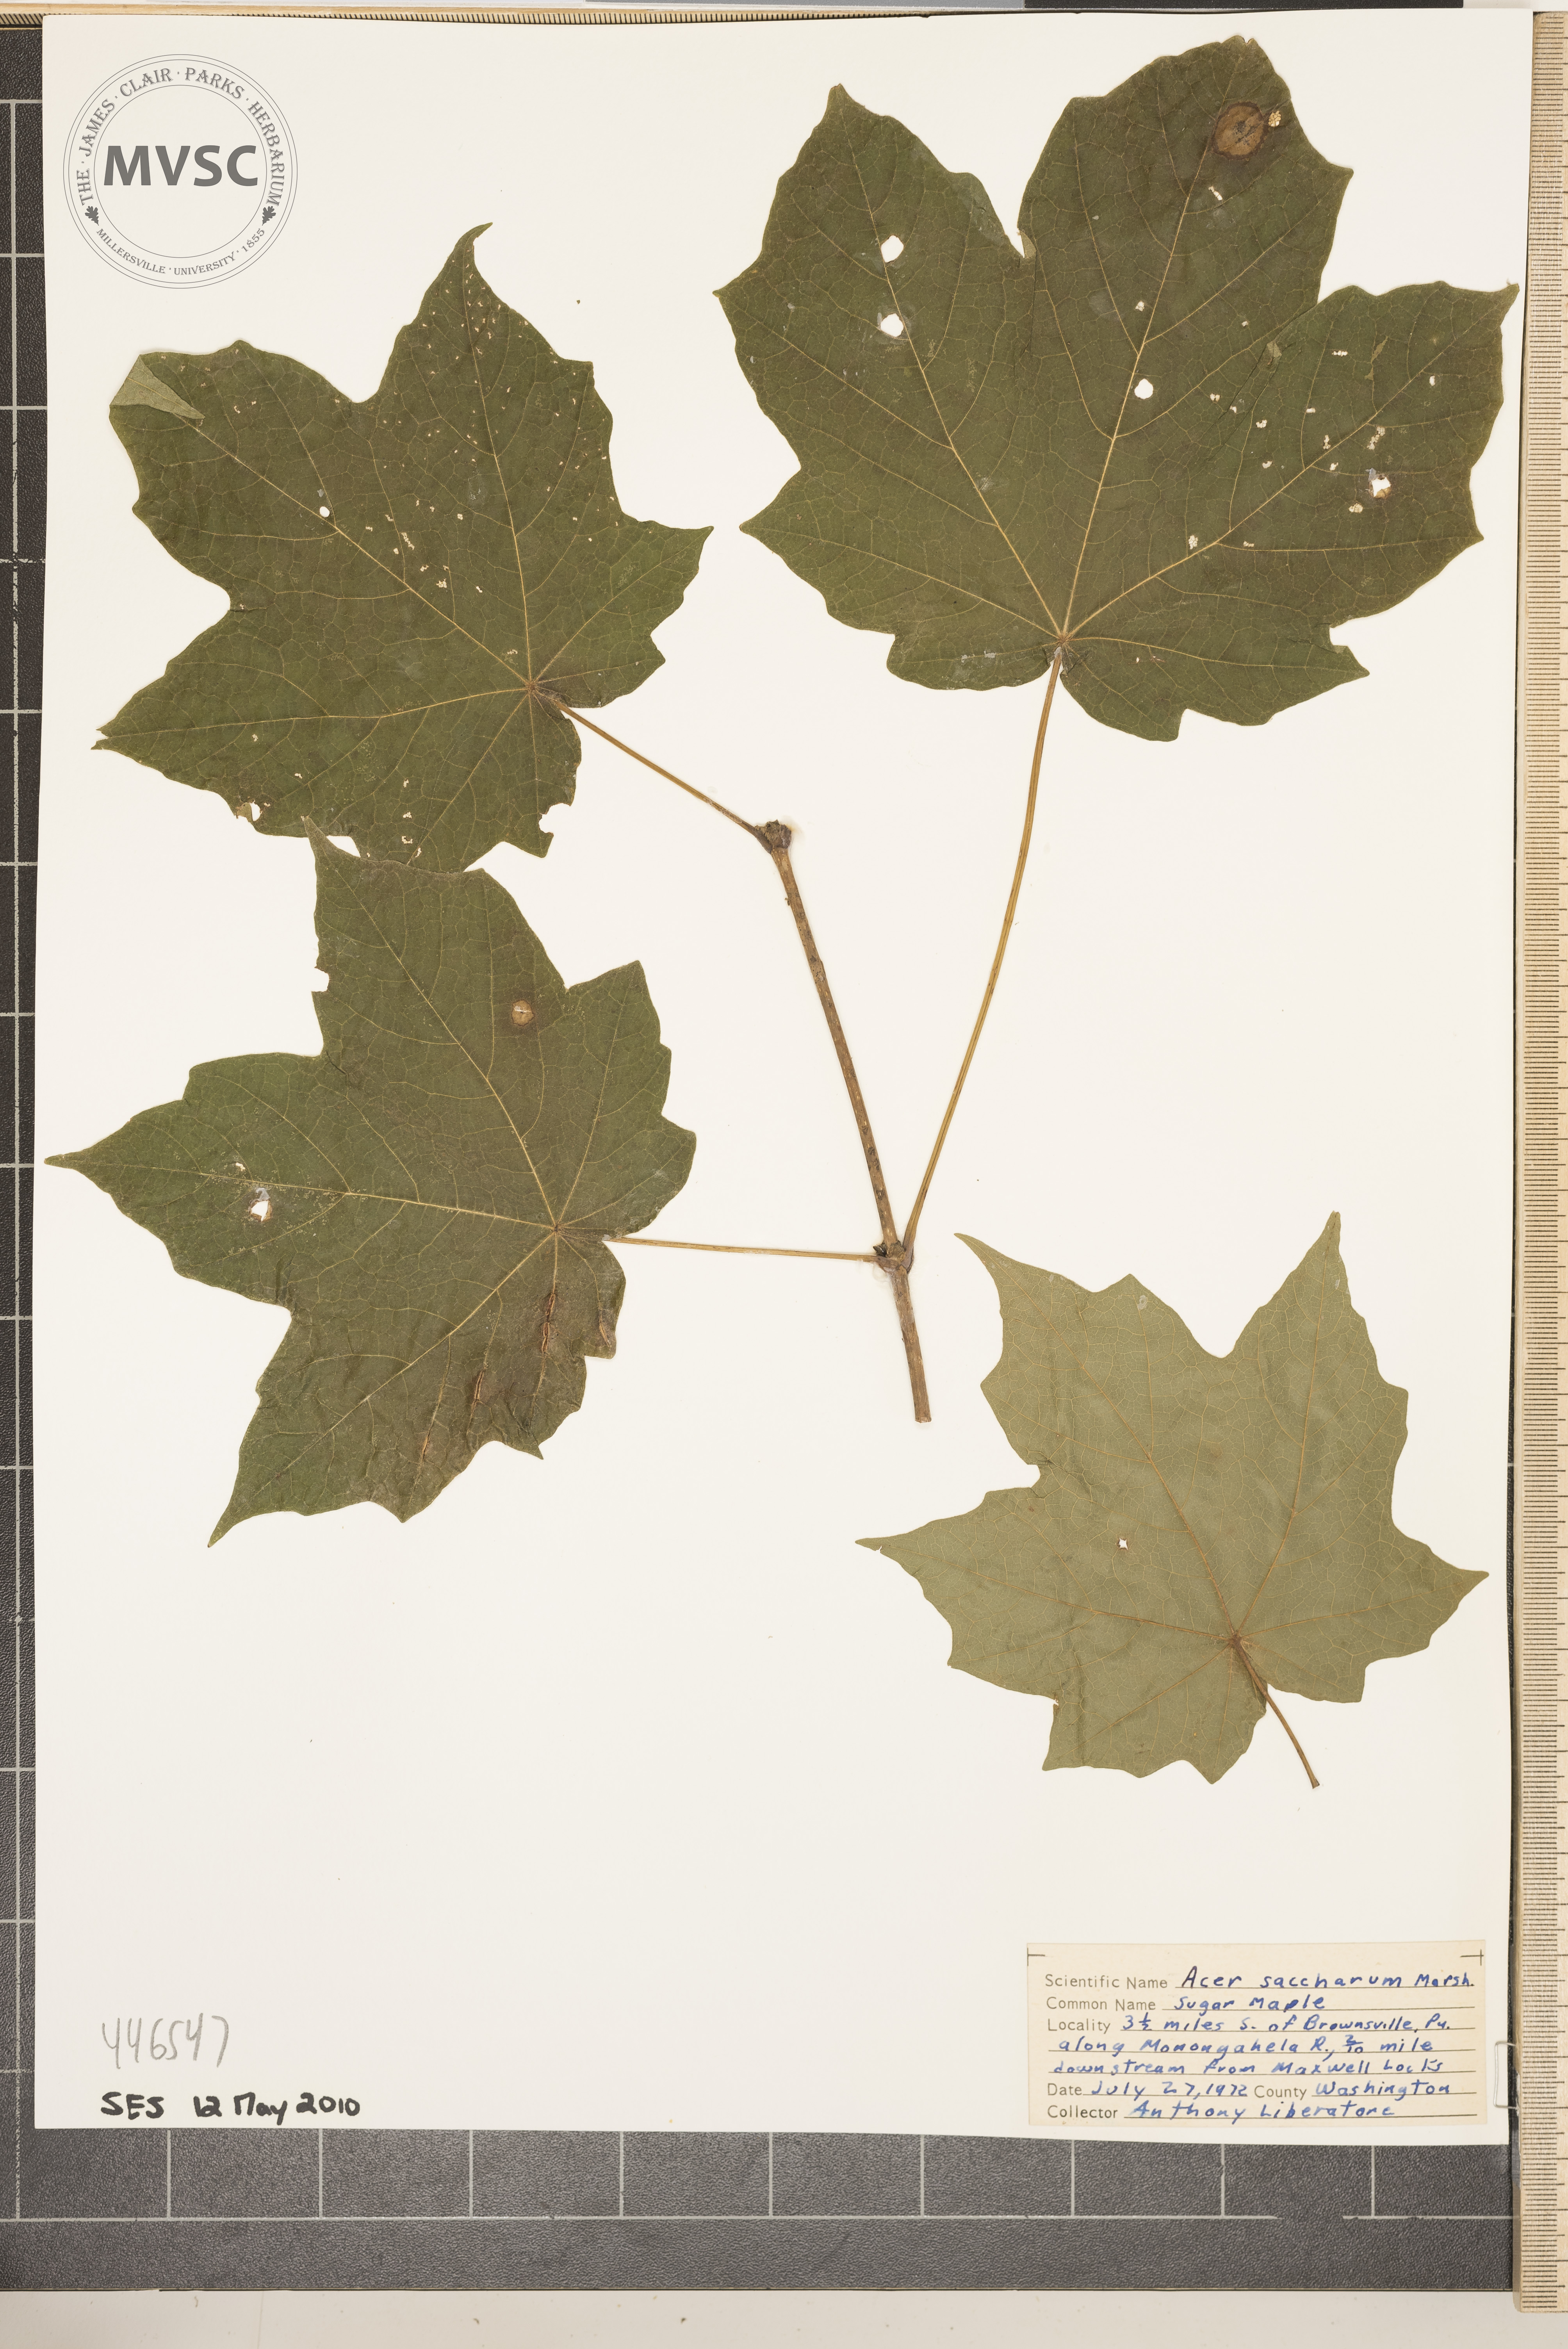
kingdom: Plantae
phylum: Tracheophyta
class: Magnoliopsida
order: Sapindales
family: Sapindaceae
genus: Acer
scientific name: Acer saccharum
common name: Sugar maple
